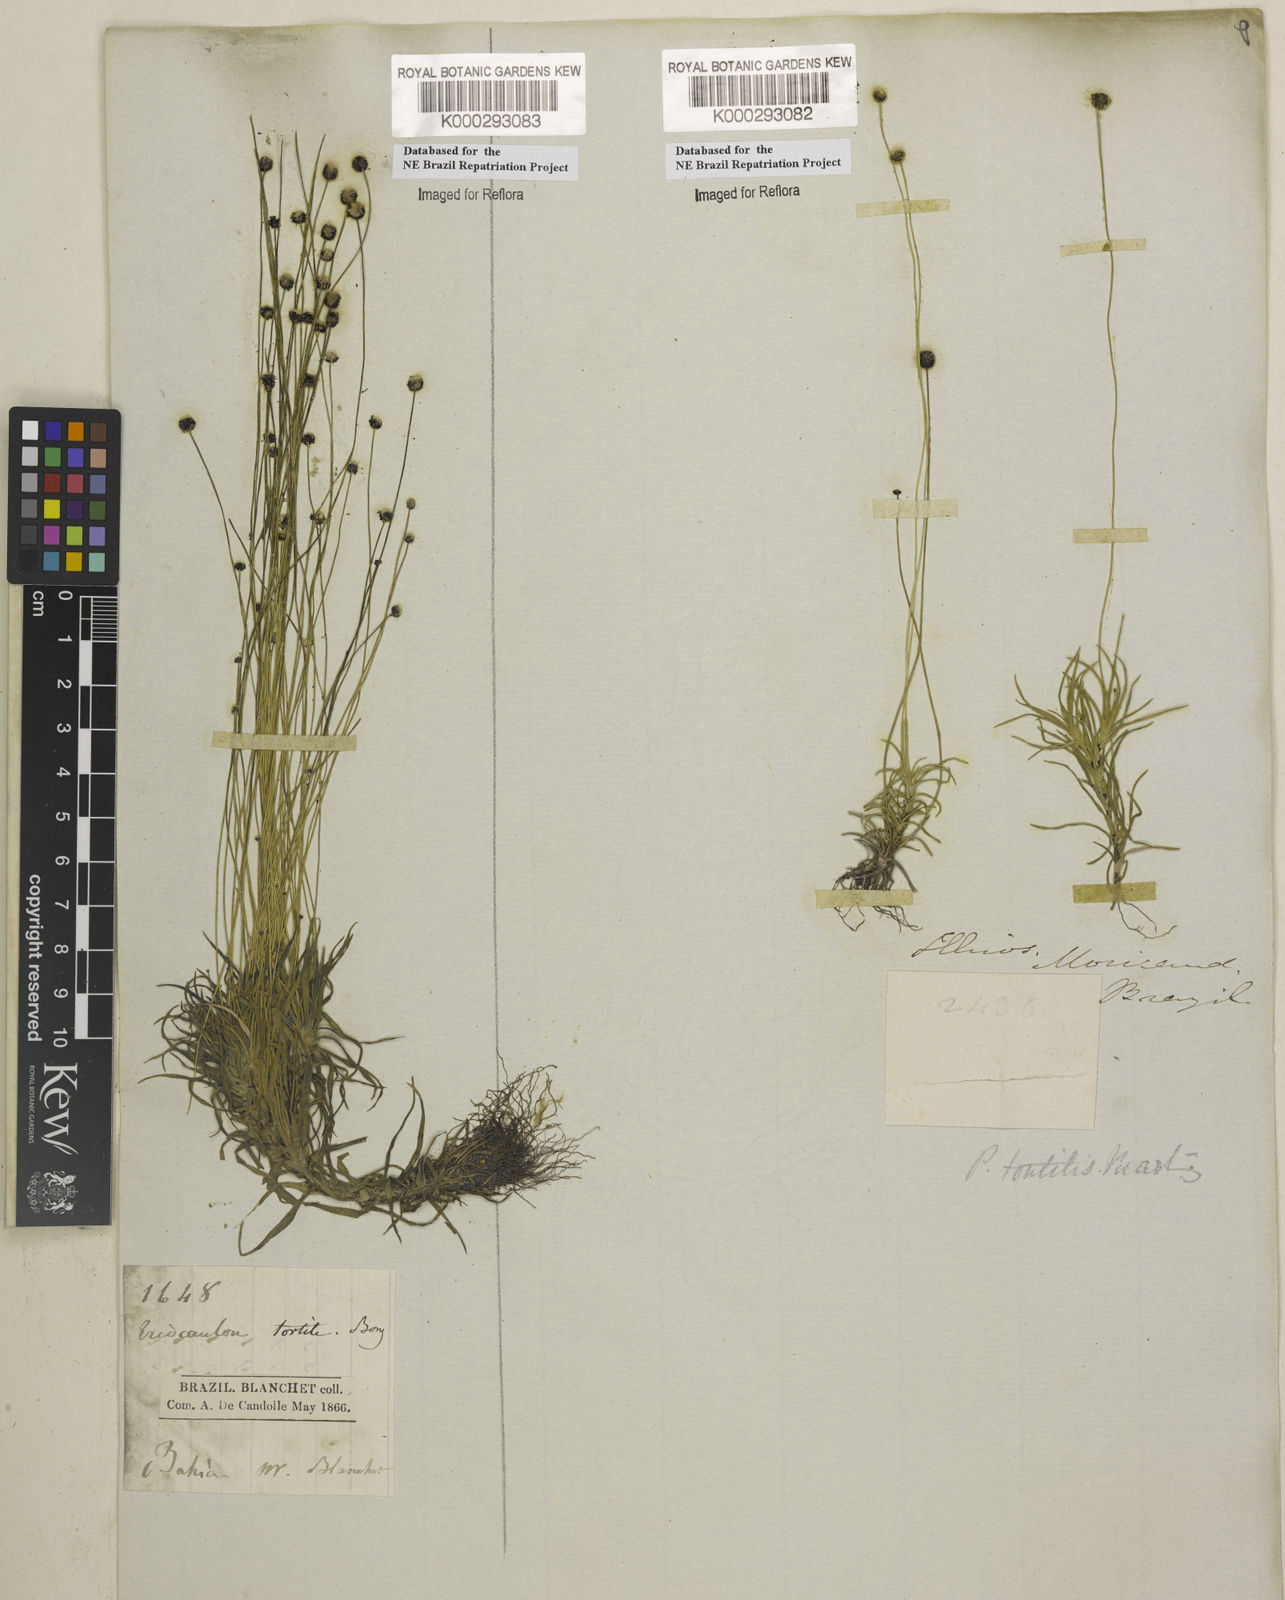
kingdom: Plantae
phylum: Tracheophyta
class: Liliopsida
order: Poales
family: Eriocaulaceae
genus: Paepalanthus
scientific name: Paepalanthus
